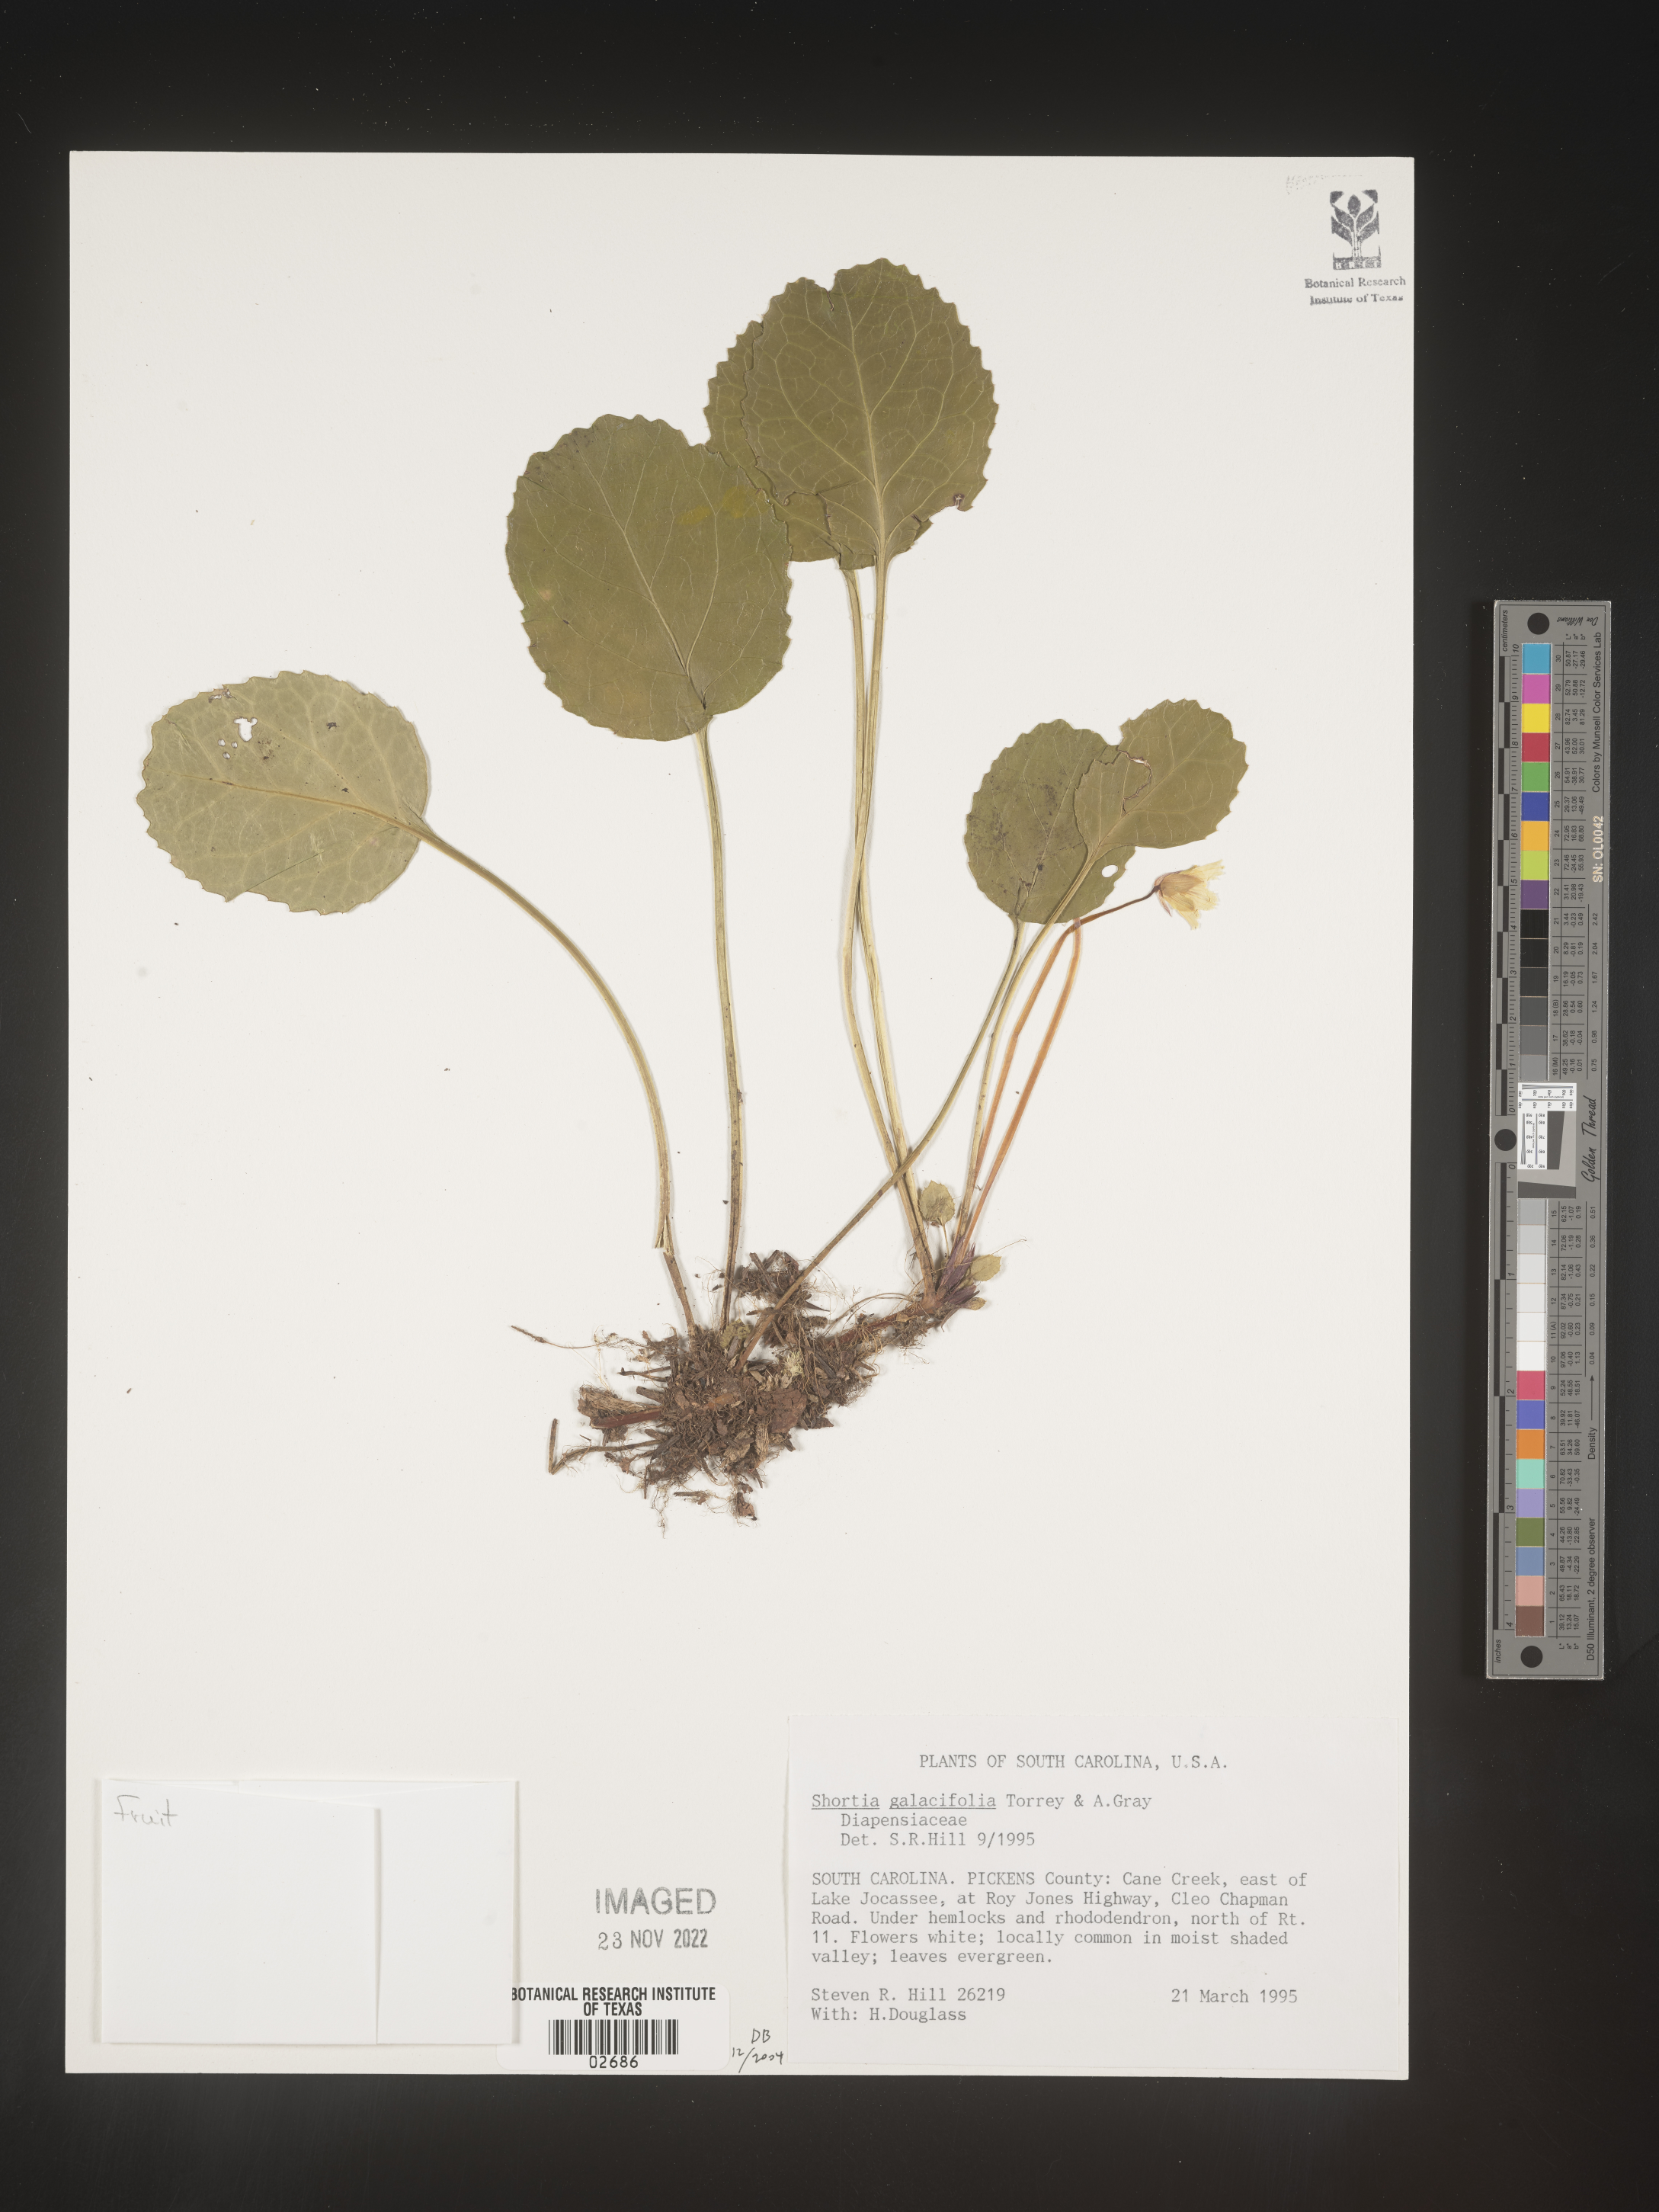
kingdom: Plantae
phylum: Tracheophyta
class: Magnoliopsida
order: Ericales
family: Diapensiaceae
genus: Shortia
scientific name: Shortia galacifolia
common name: Shortia
